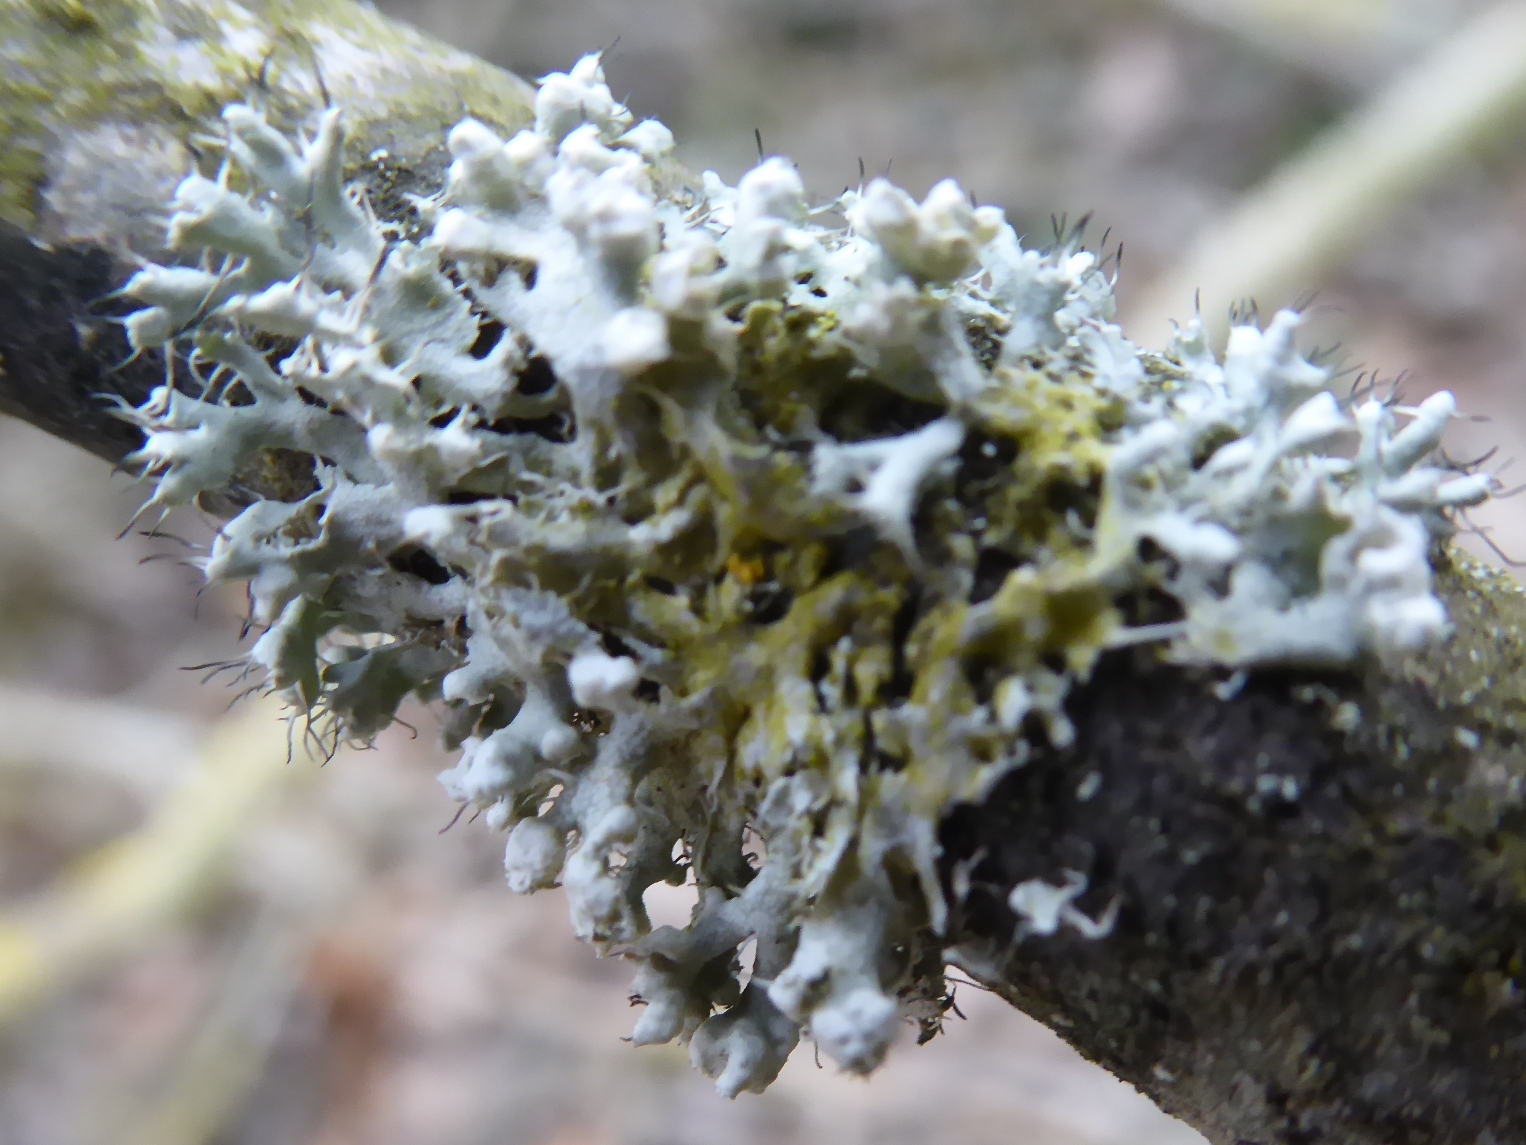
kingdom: Fungi
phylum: Ascomycota
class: Lecanoromycetes
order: Caliciales
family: Physciaceae
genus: Physcia
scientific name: Physcia adscendens
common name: hætte-rosetlav
